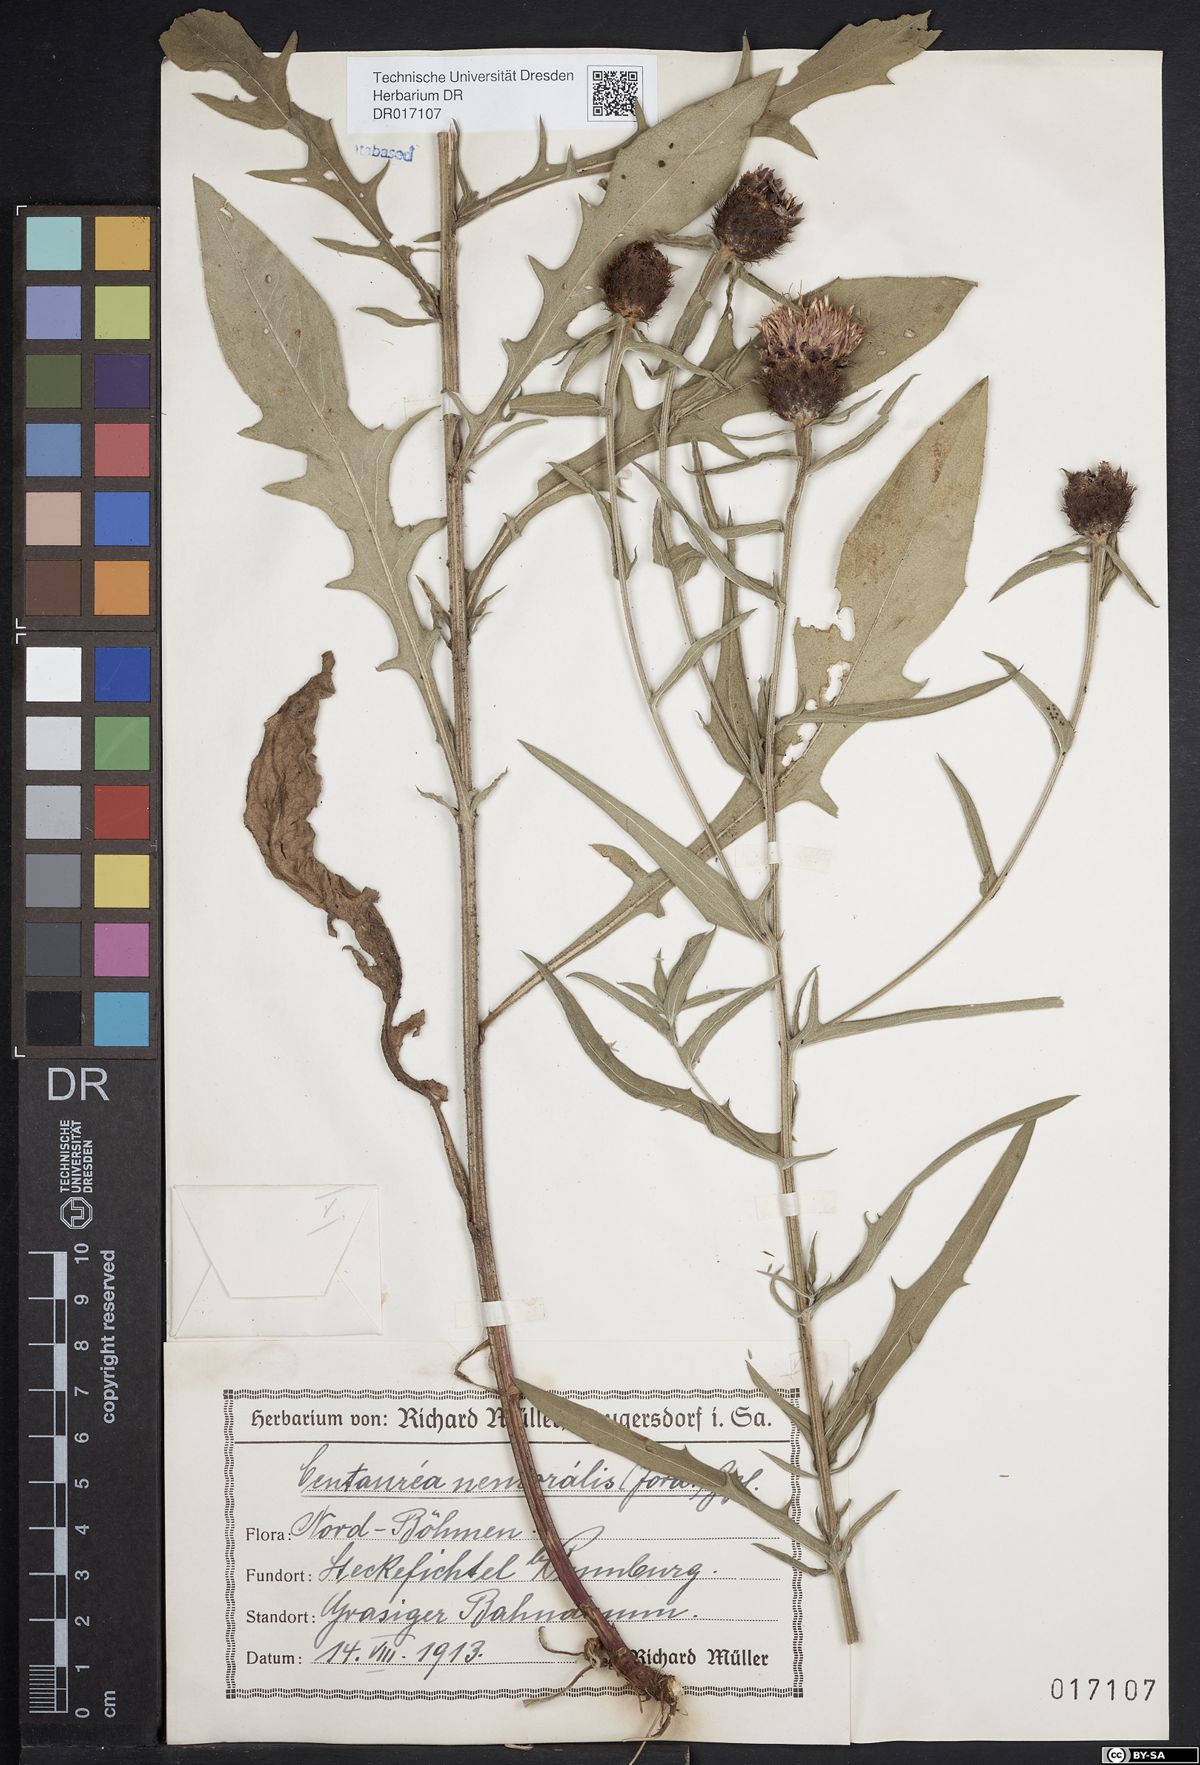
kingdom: Plantae
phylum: Tracheophyta
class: Magnoliopsida
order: Asterales
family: Asteraceae
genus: Centaurea
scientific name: Centaurea nigra
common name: Lesser knapweed
